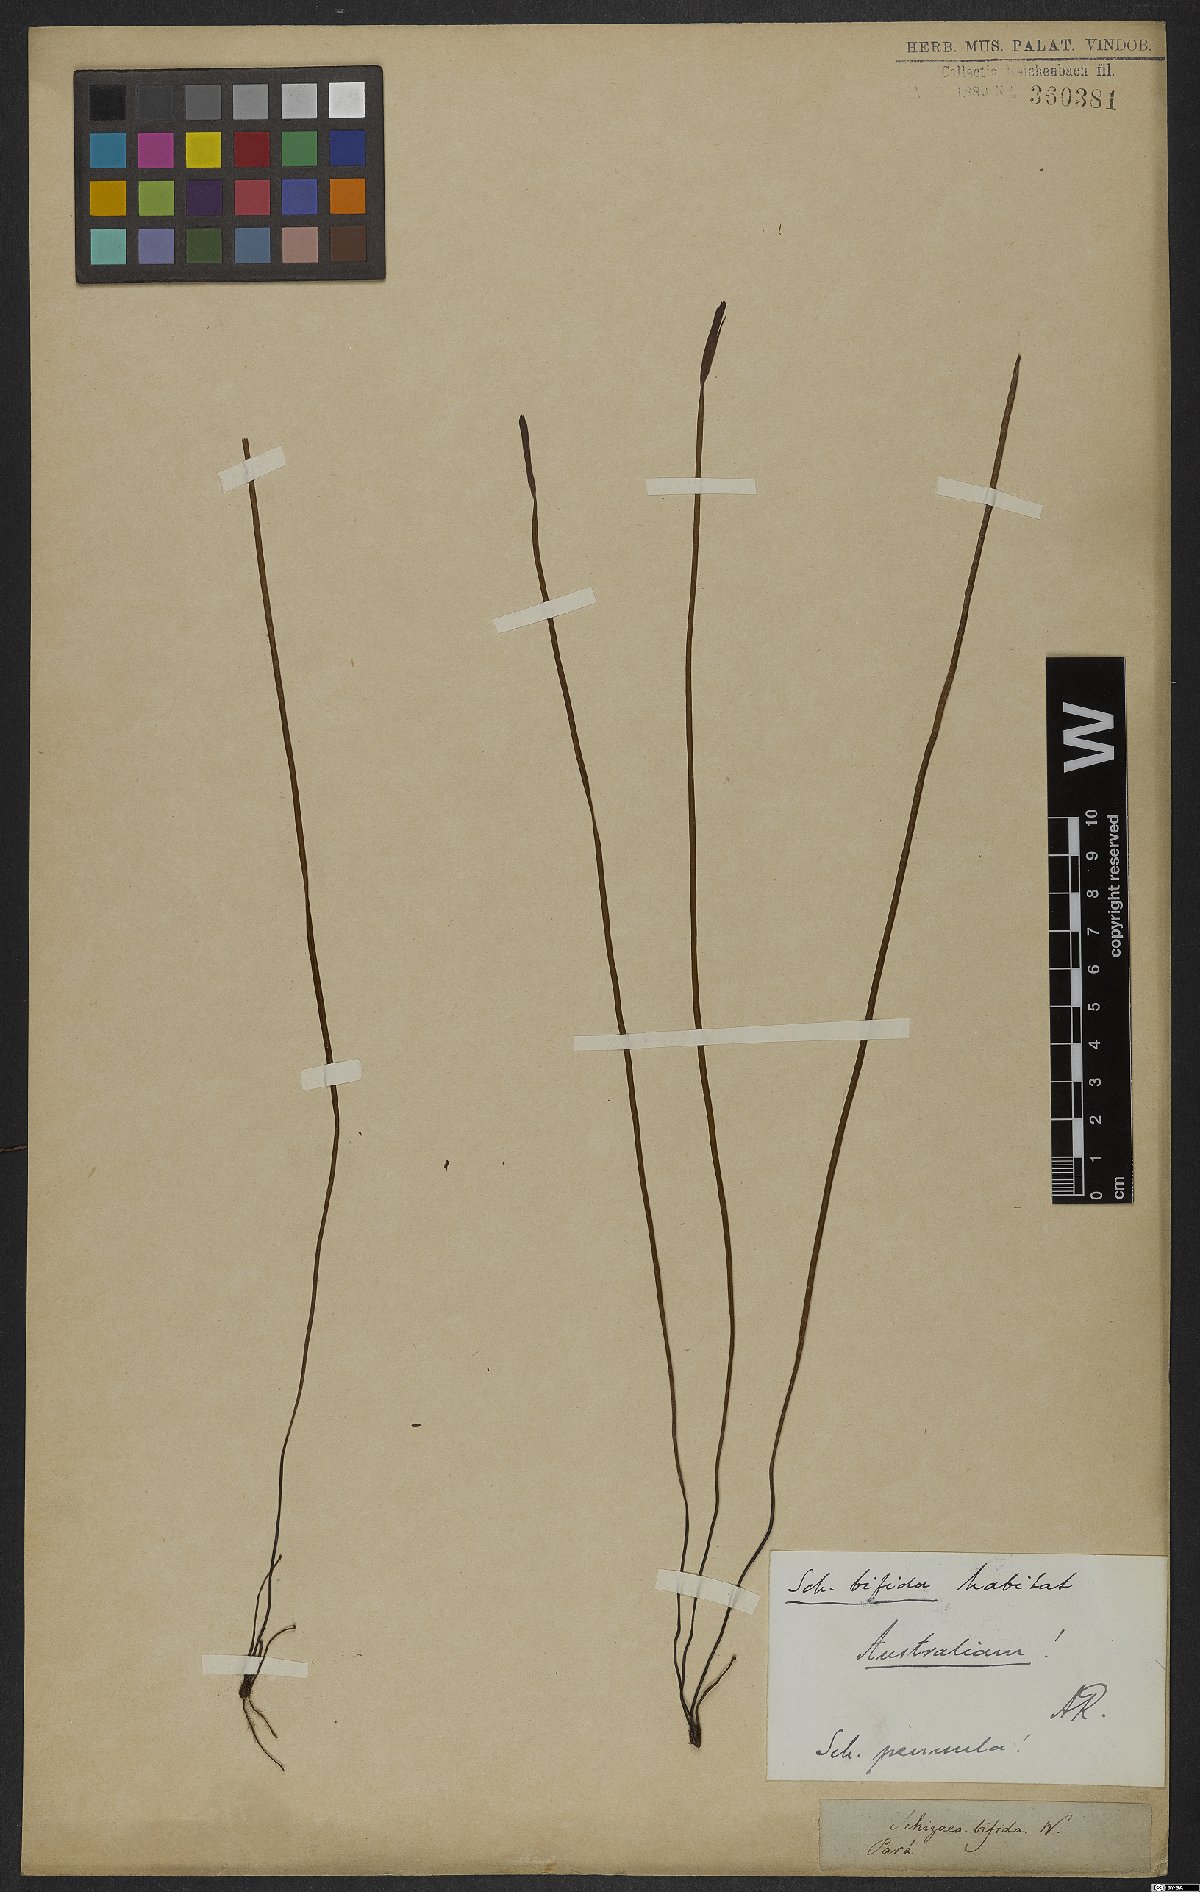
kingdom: Plantae
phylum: Tracheophyta
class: Polypodiopsida
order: Schizaeales
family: Schizaeaceae
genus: Actinostachys
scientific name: Actinostachys pennula
